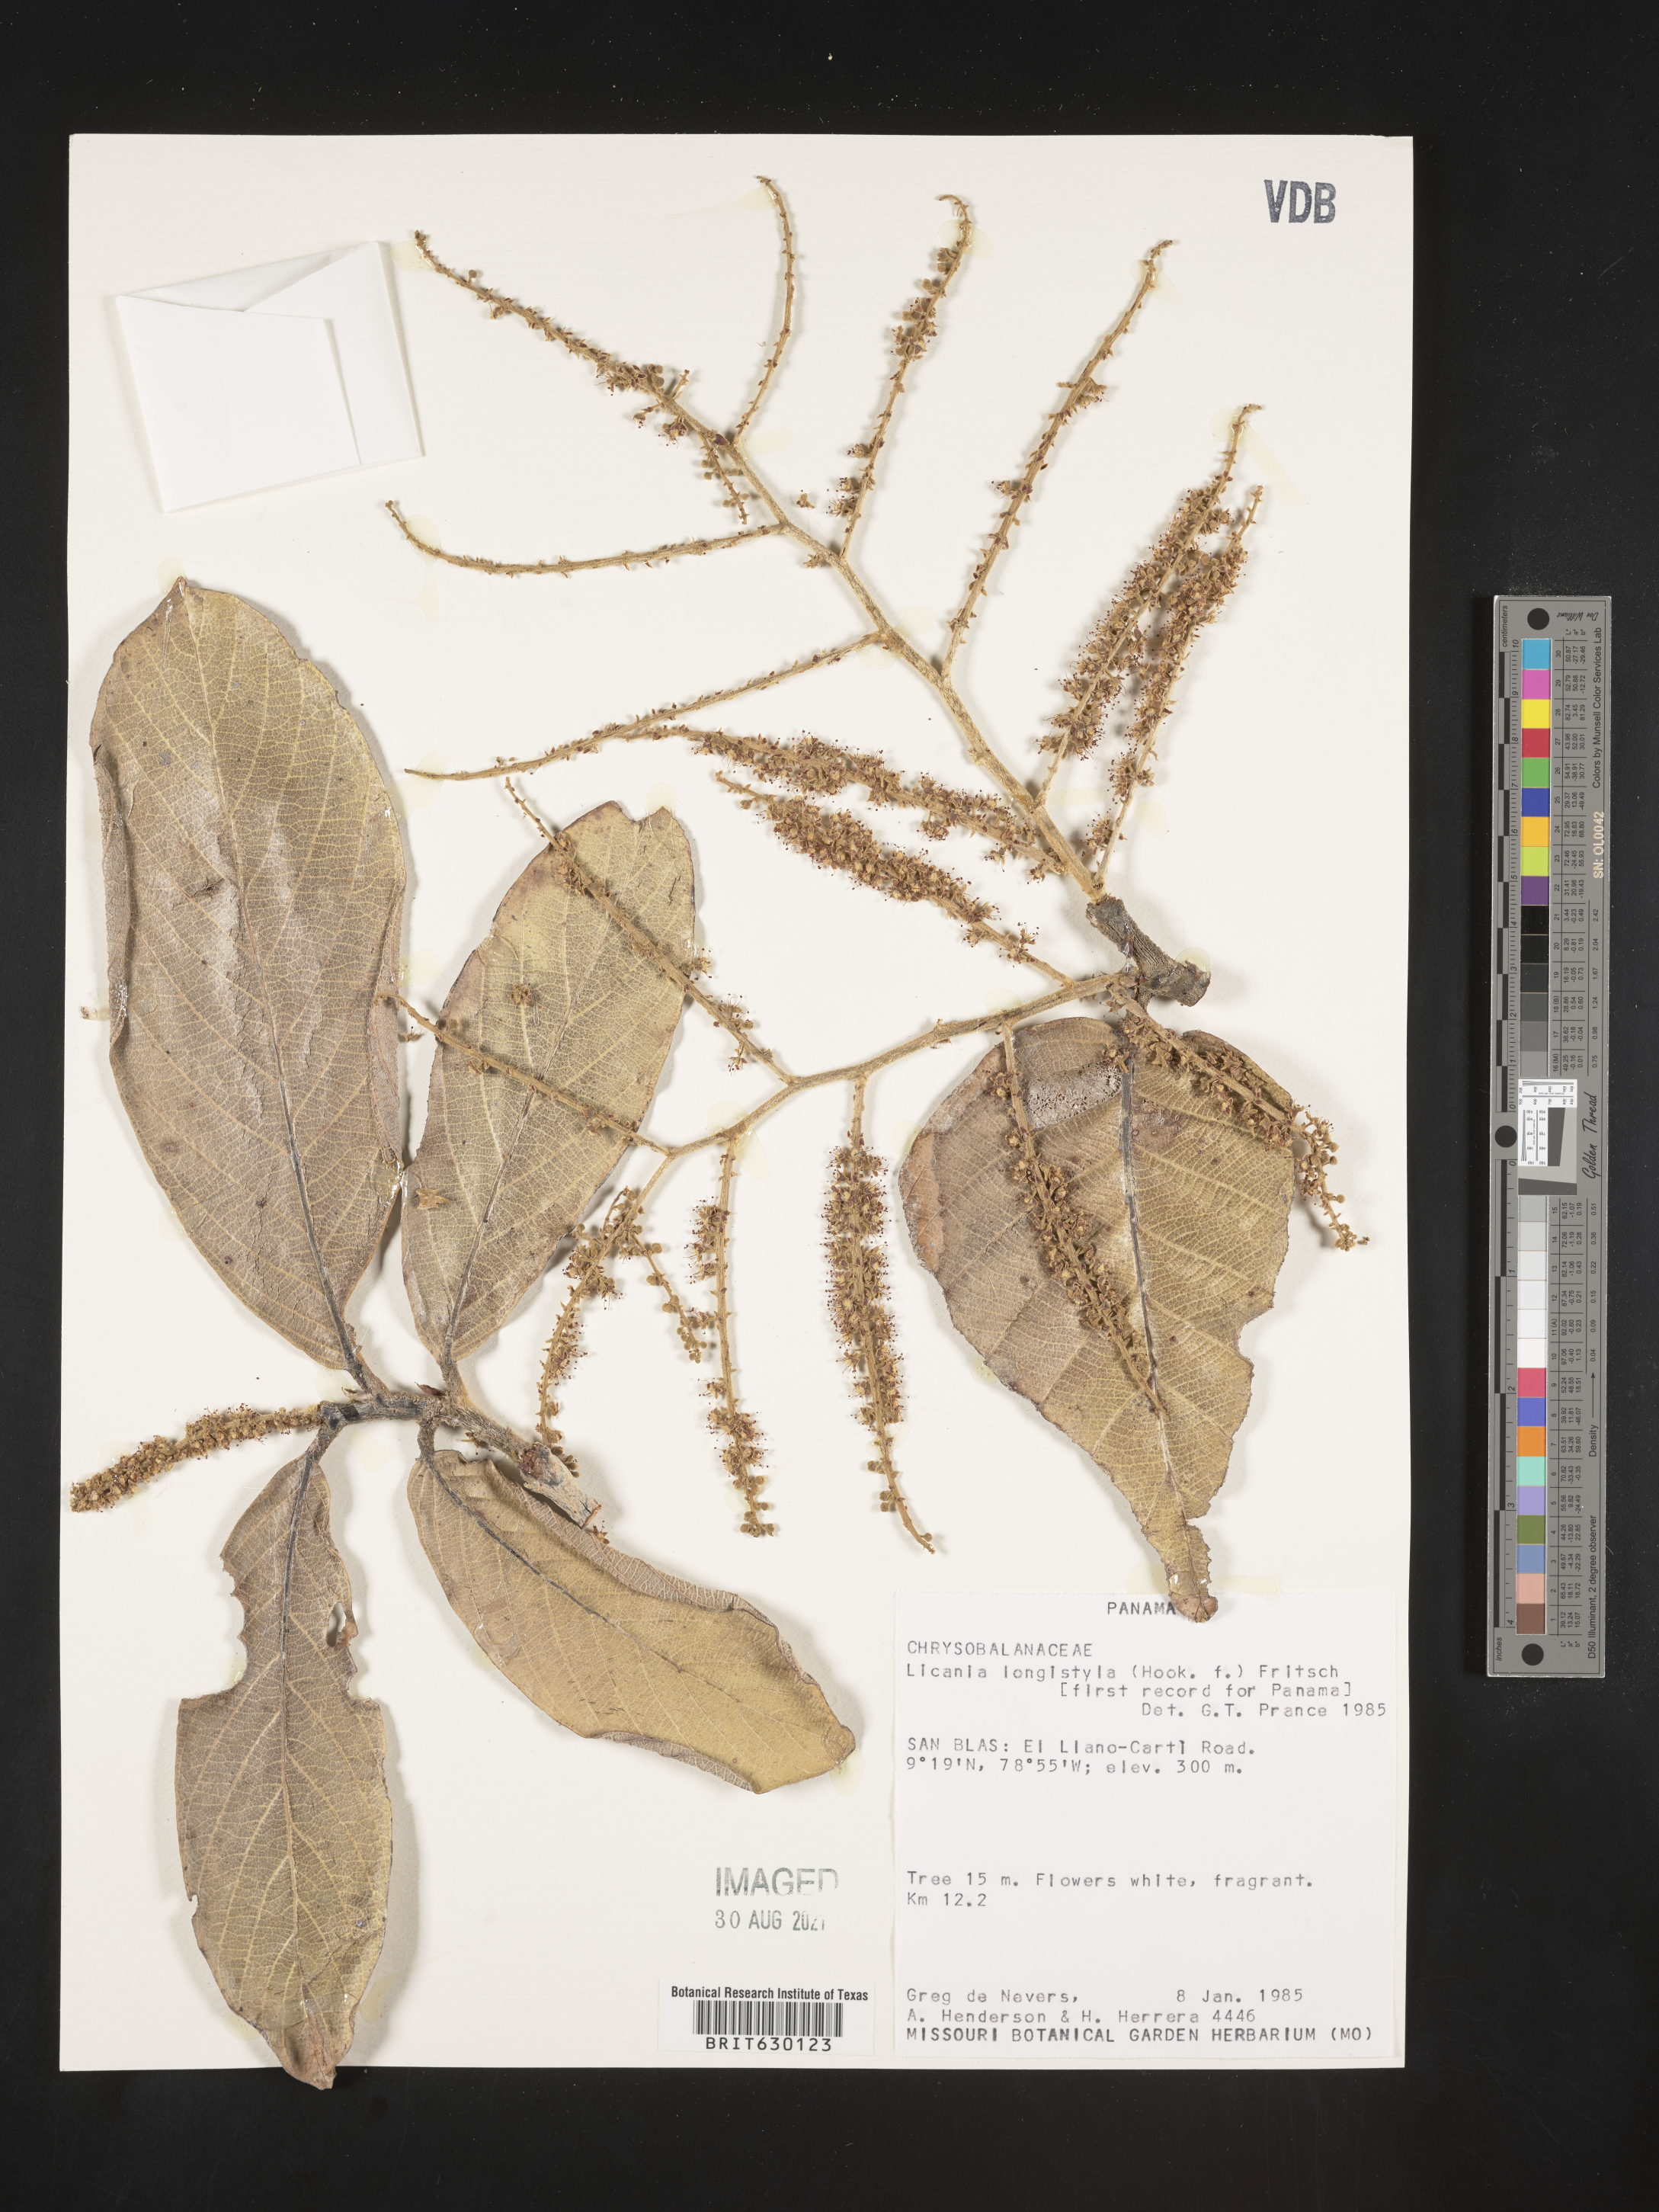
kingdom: Plantae
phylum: Tracheophyta
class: Magnoliopsida
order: Malpighiales
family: Chrysobalanaceae
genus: Leptobalanus
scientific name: Leptobalanus longistylus
